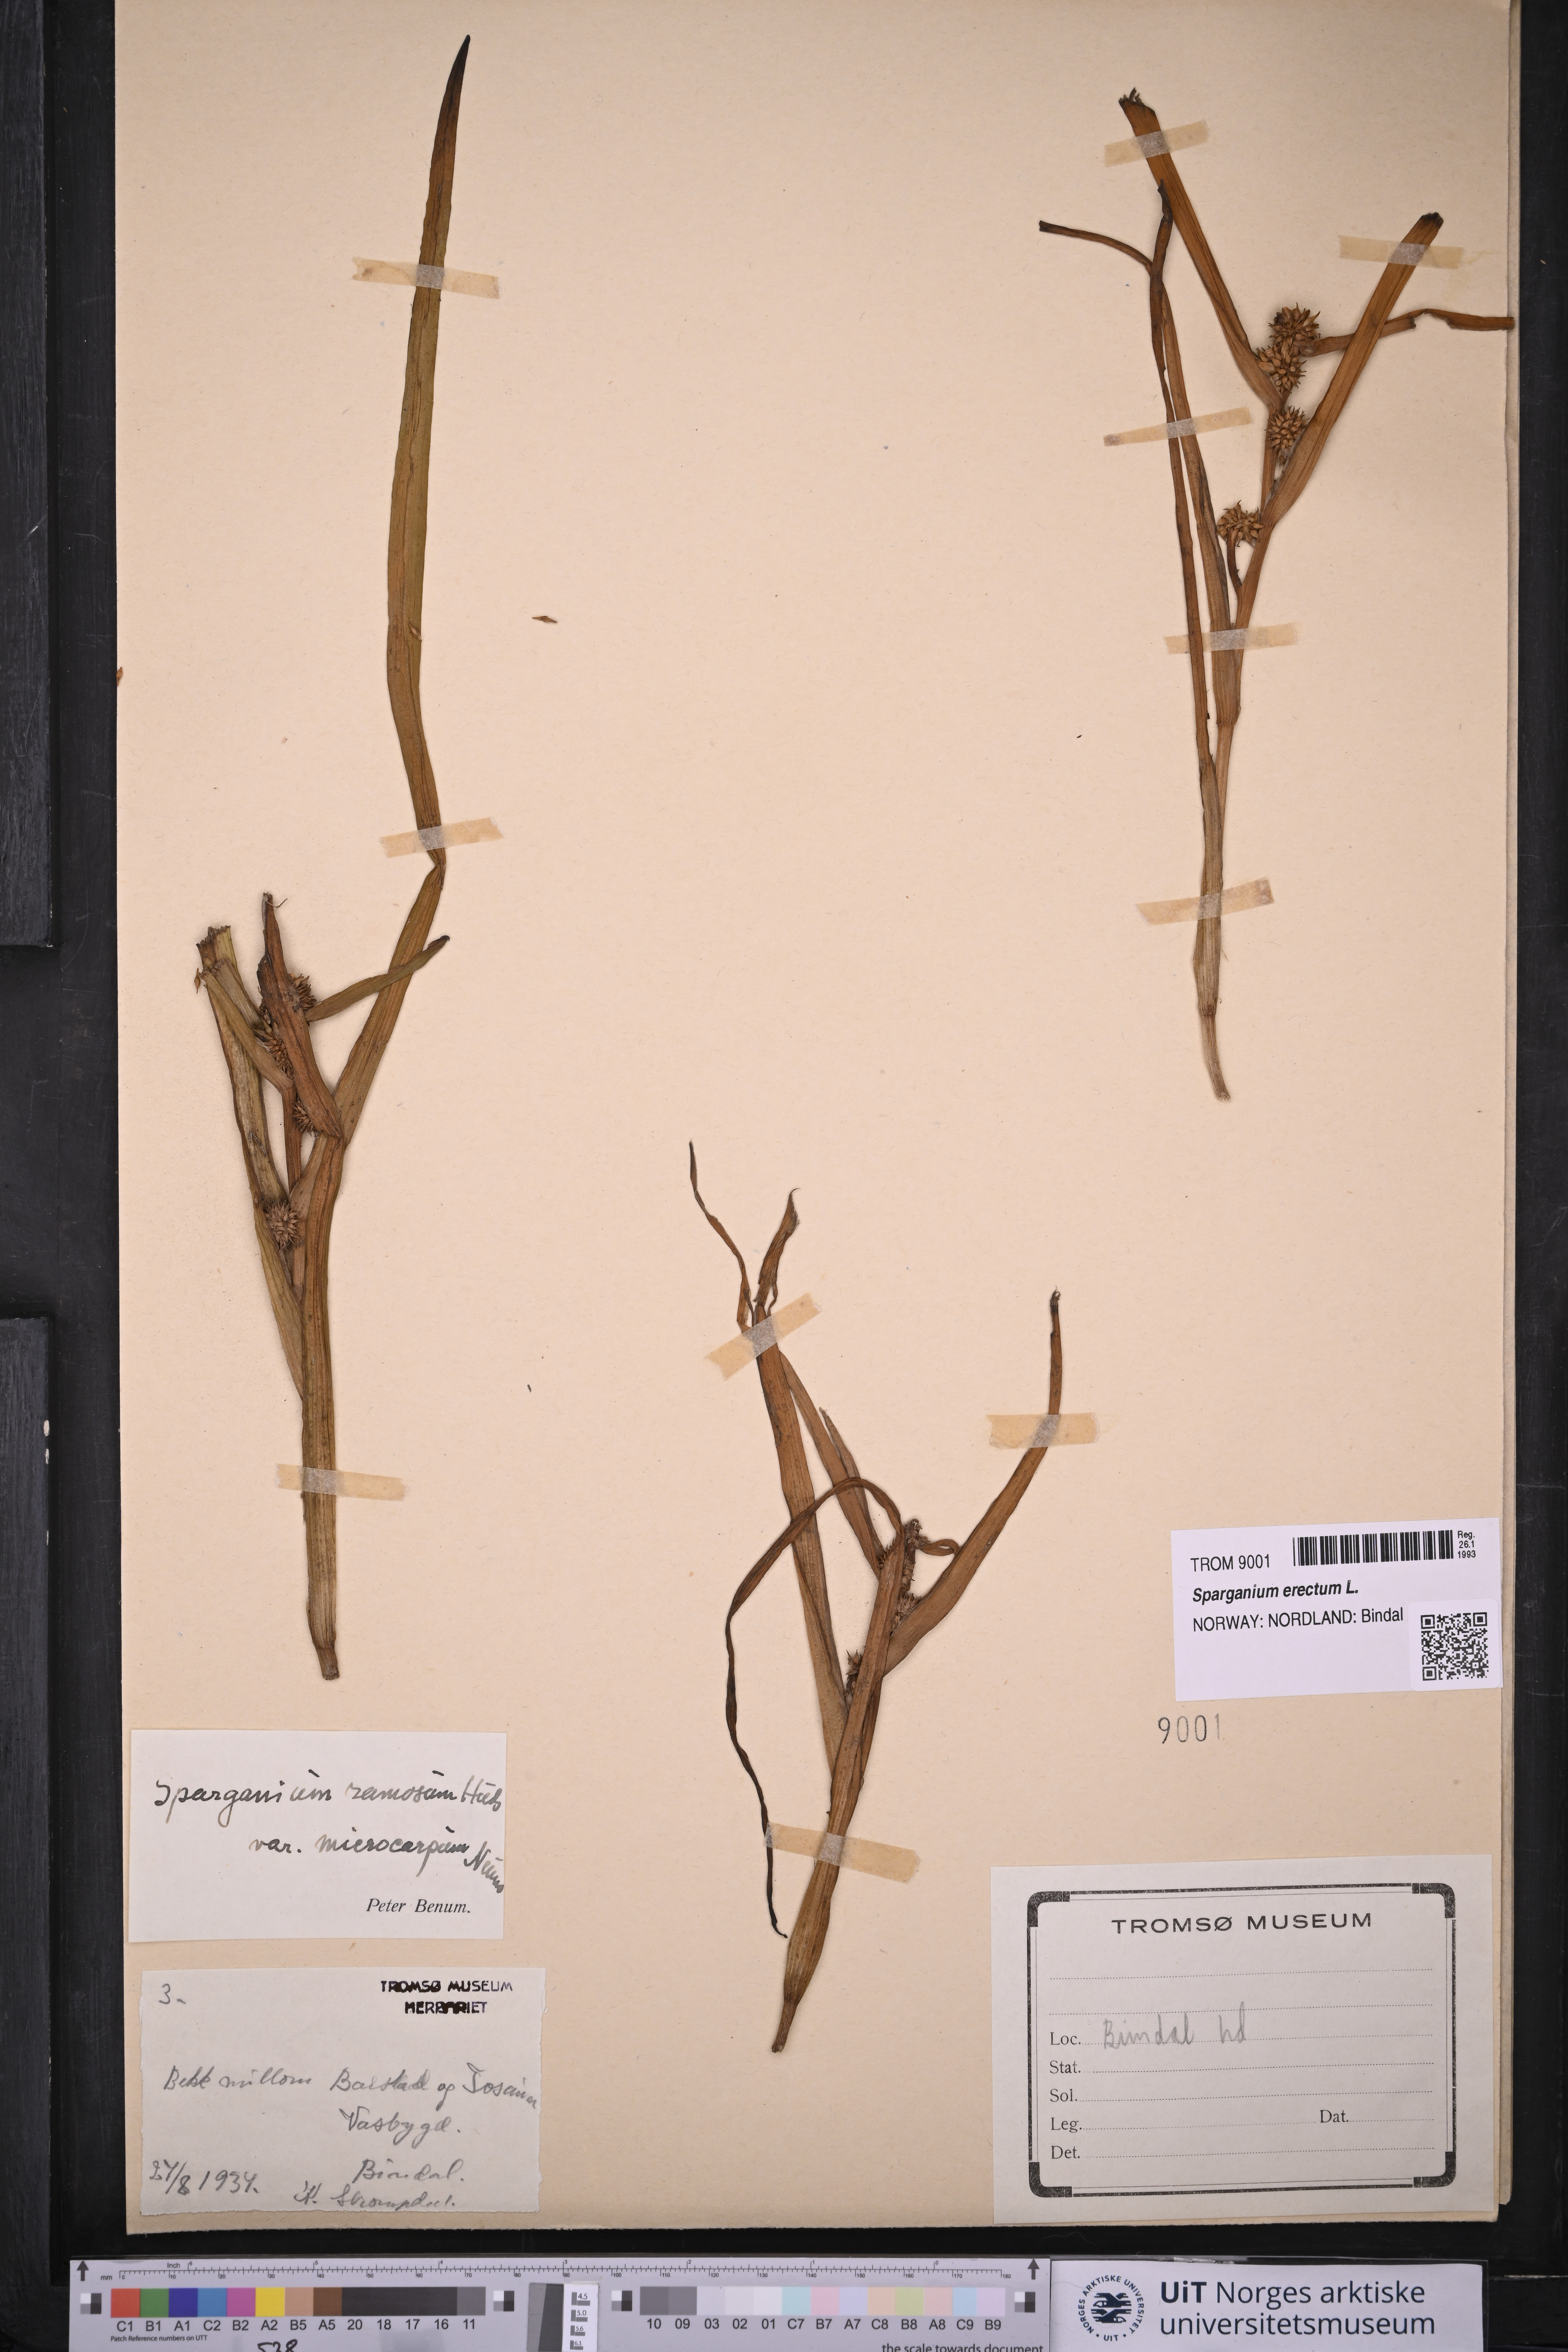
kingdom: Plantae
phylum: Tracheophyta
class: Liliopsida
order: Poales
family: Typhaceae
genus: Sparganium
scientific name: Sparganium erectum
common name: Branched bur-reed
